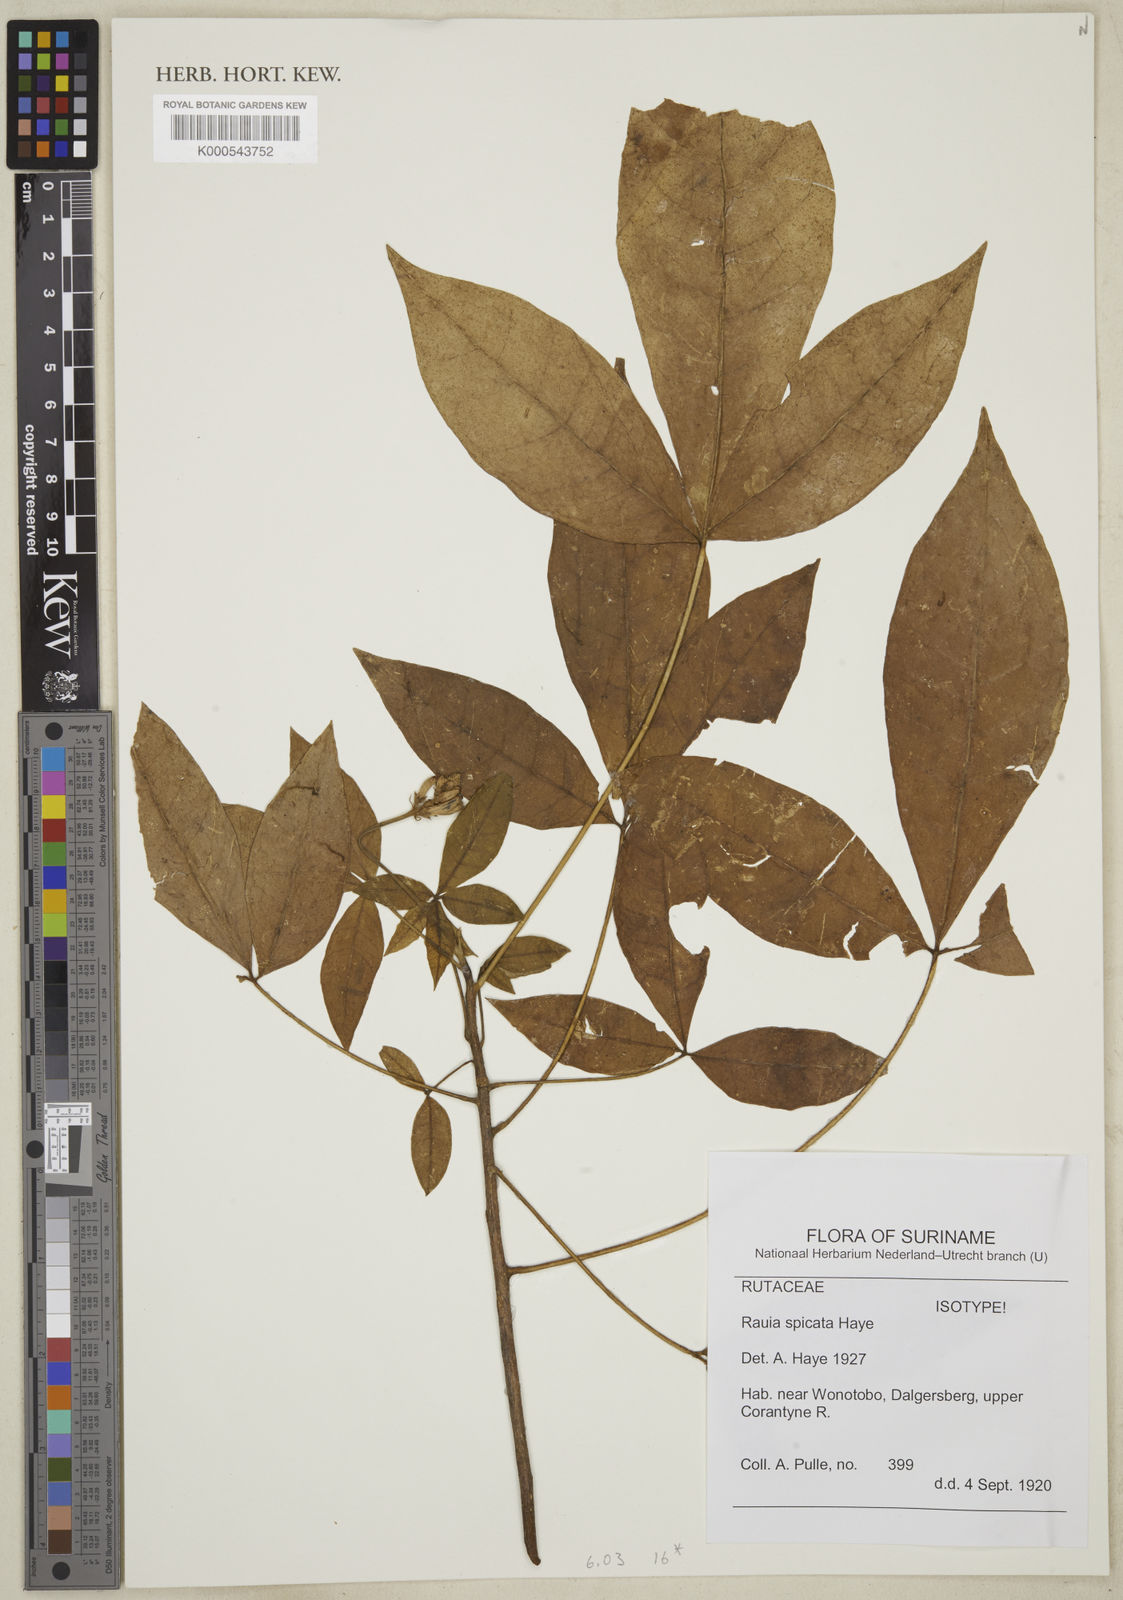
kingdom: Plantae
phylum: Tracheophyta
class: Magnoliopsida
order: Sapindales
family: Rutaceae
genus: Rauia
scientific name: Rauia spicata
